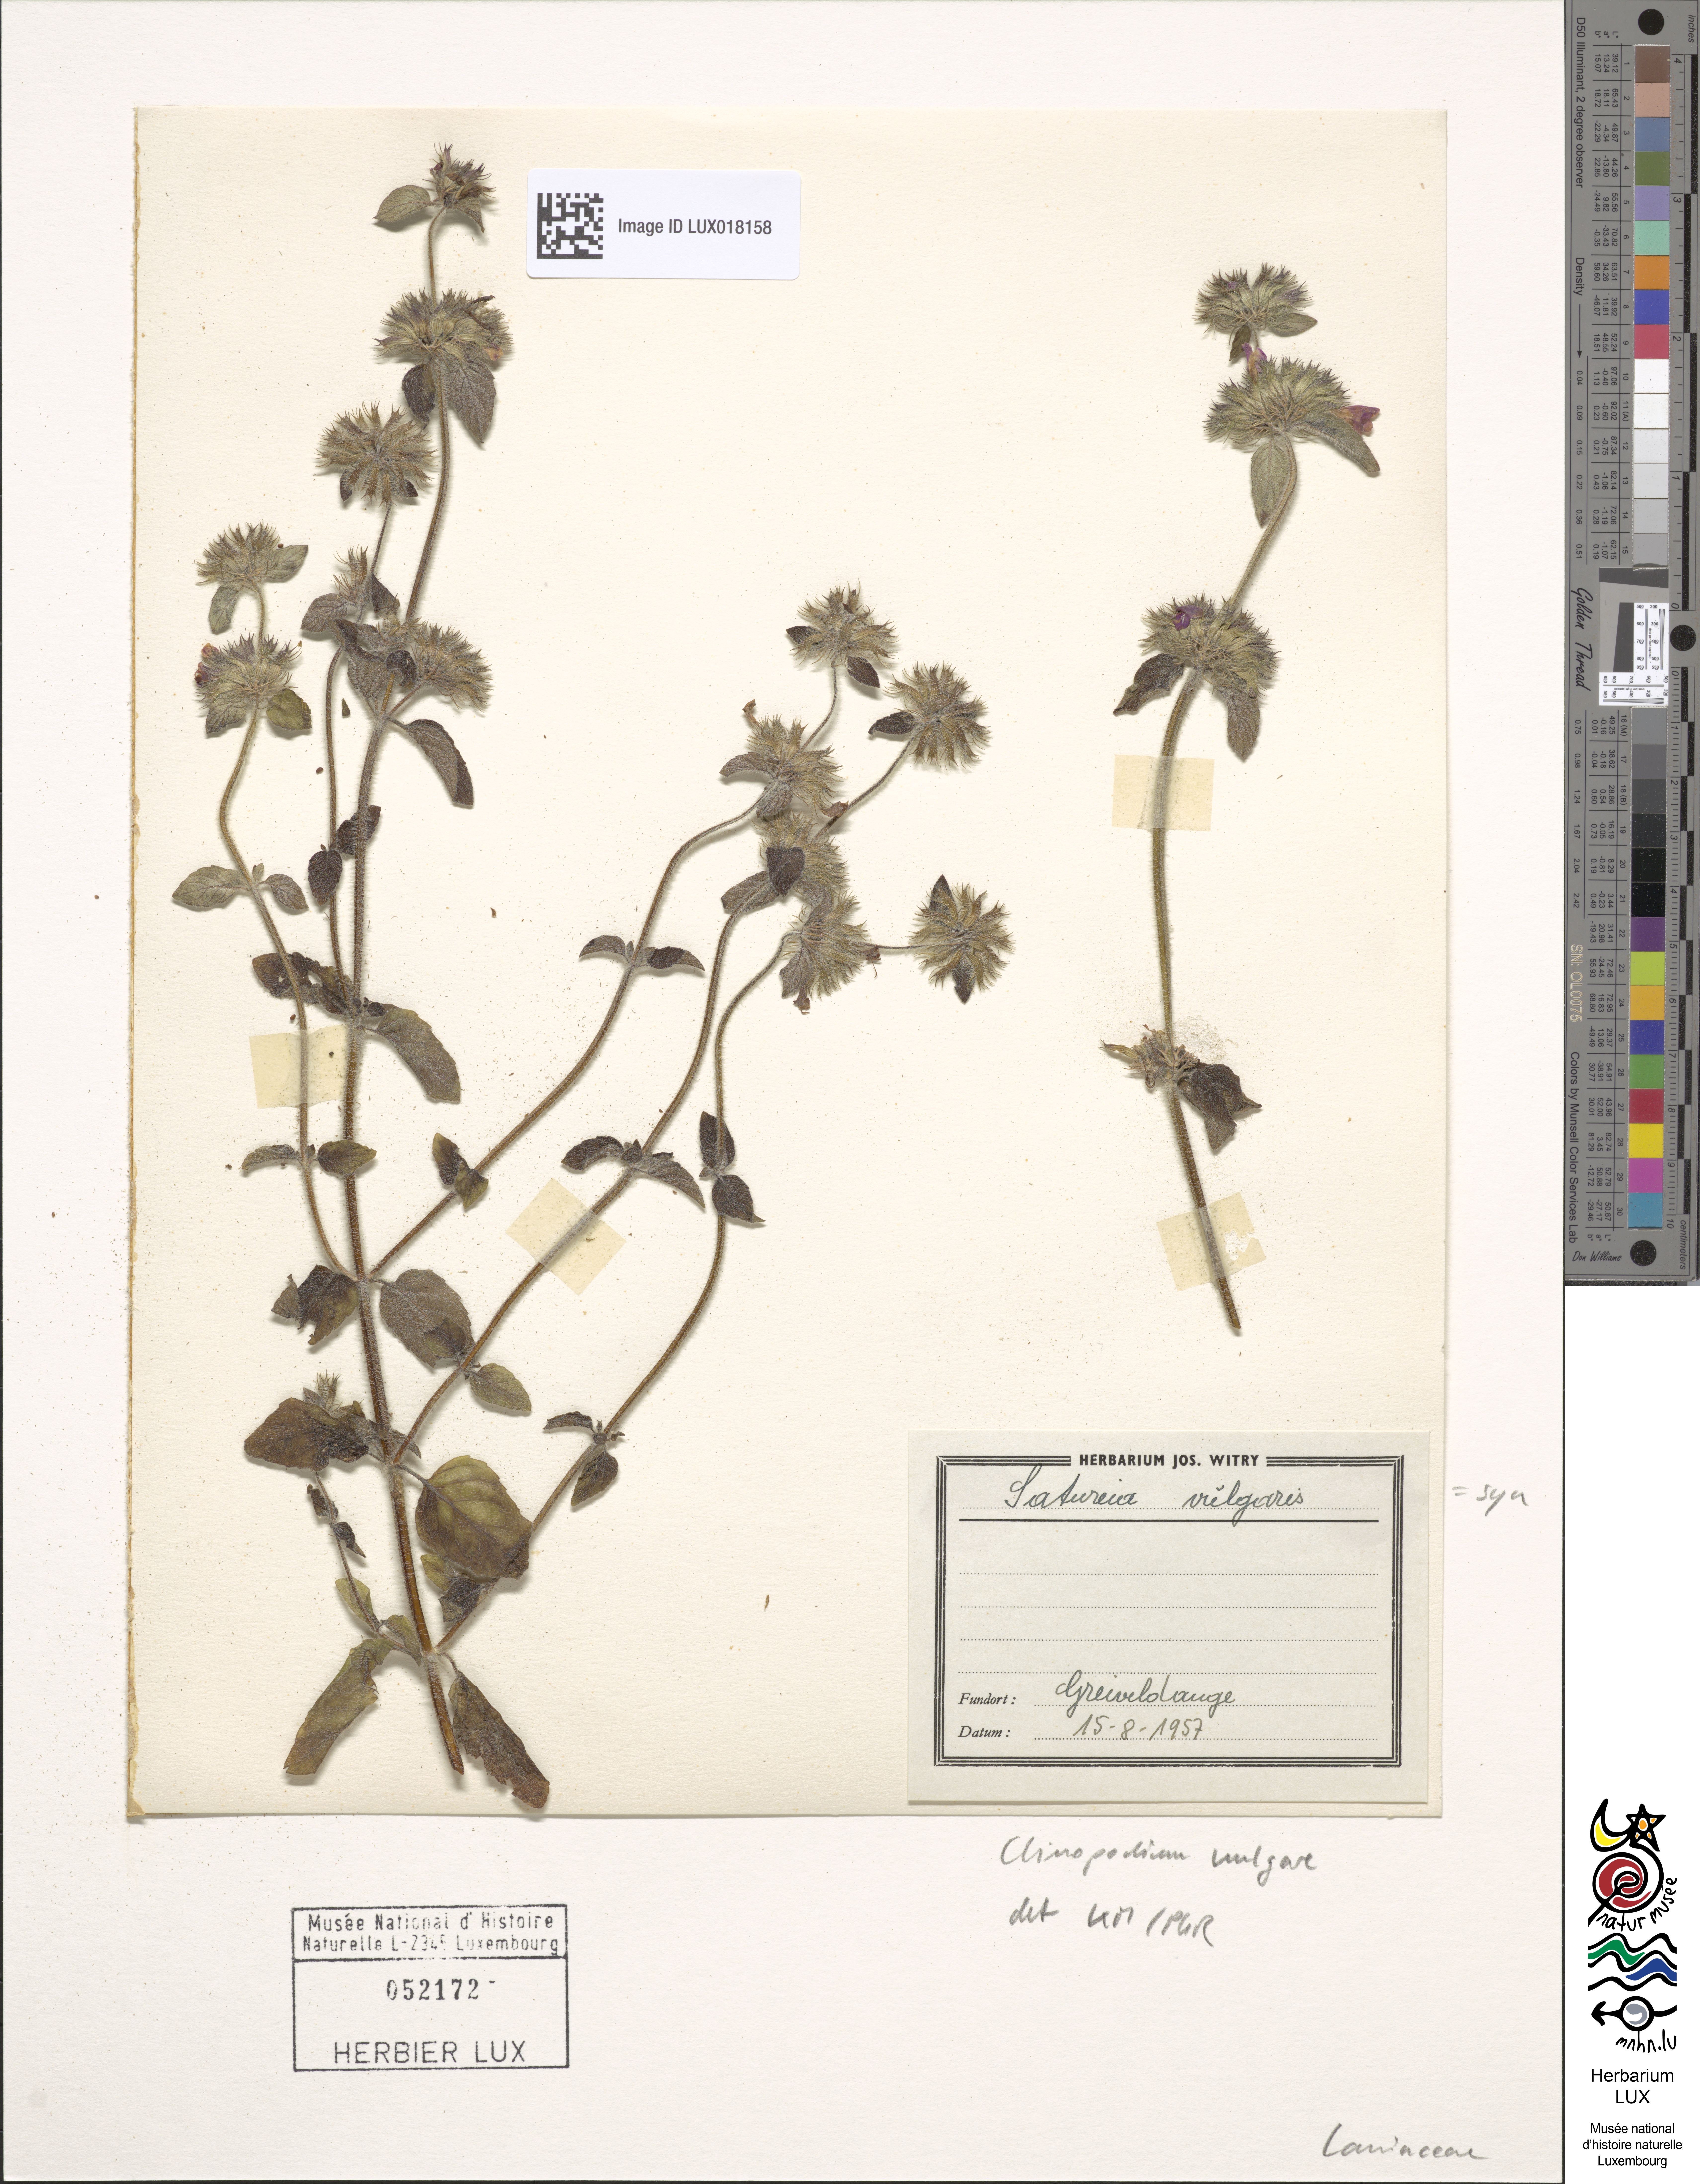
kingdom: Plantae
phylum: Tracheophyta
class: Magnoliopsida
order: Lamiales
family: Lamiaceae
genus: Clinopodium
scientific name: Clinopodium vulgare
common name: Wild basil
